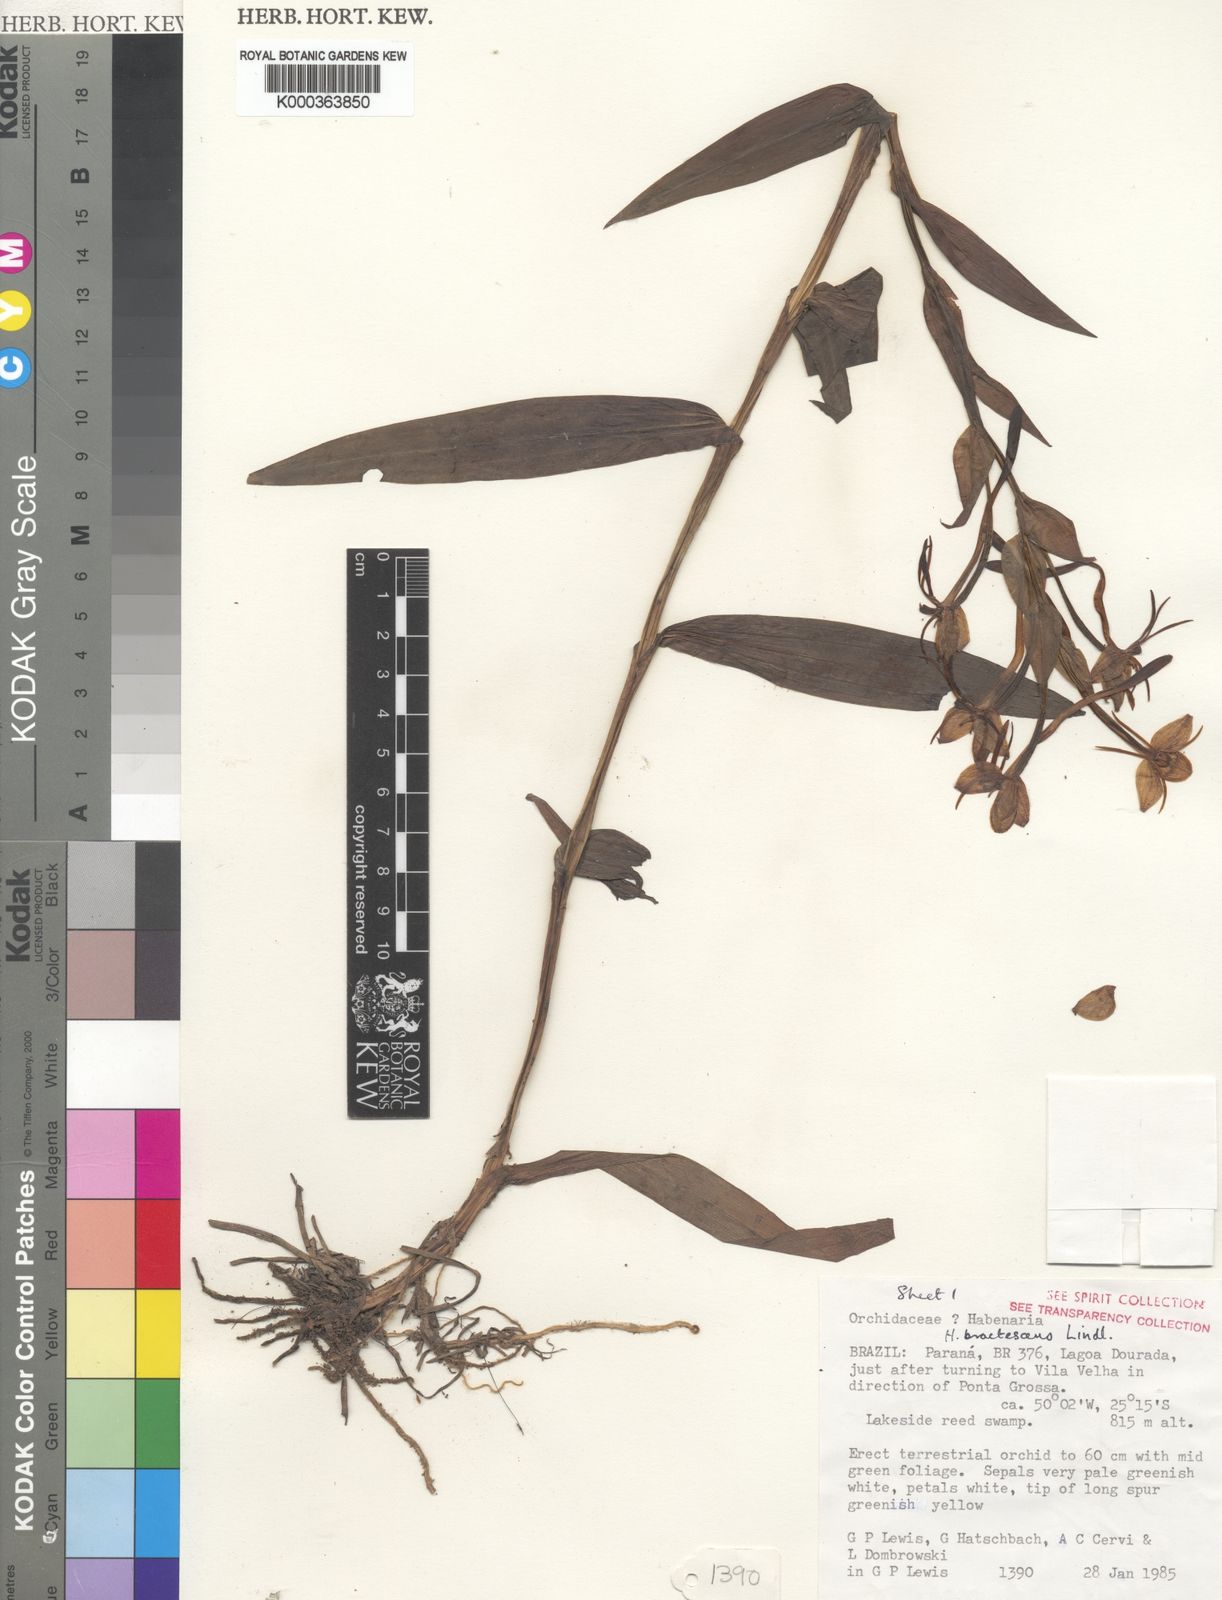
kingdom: Plantae
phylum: Tracheophyta
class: Liliopsida
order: Asparagales
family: Orchidaceae
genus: Habenaria
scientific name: Habenaria bractescens
